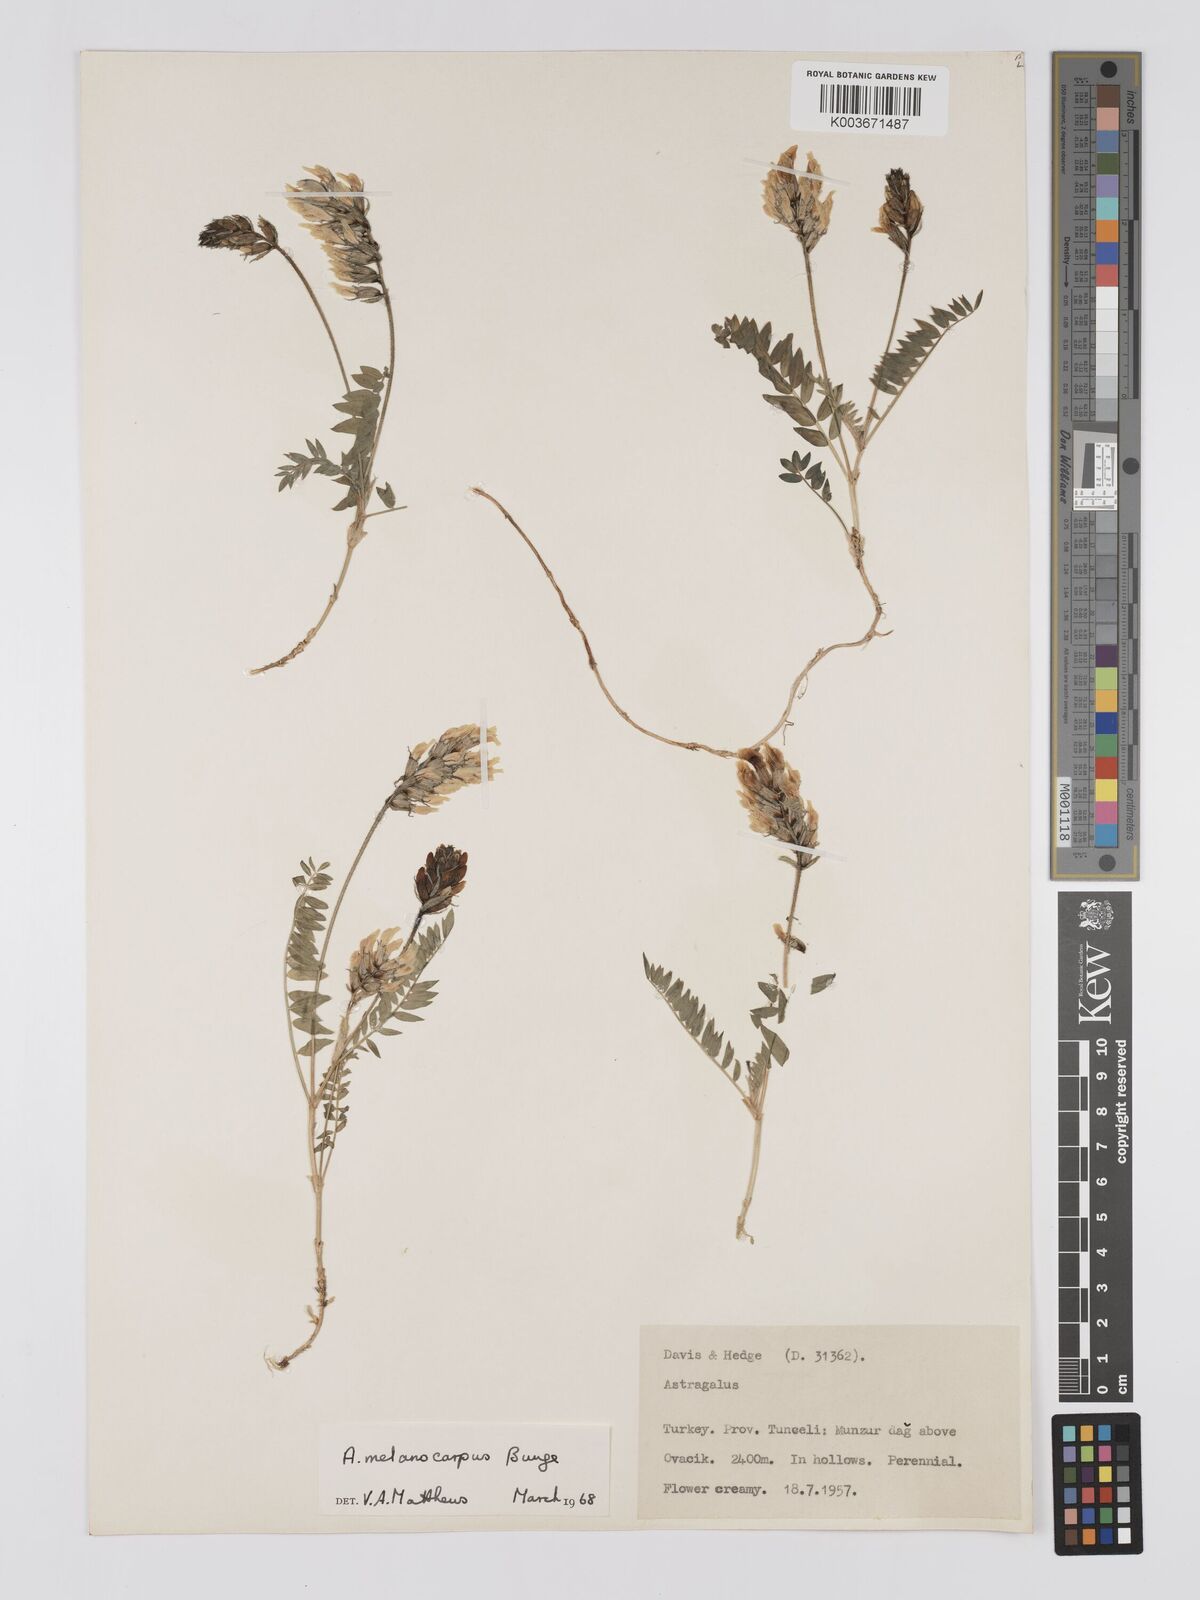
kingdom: Plantae
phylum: Tracheophyta
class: Magnoliopsida
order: Fabales
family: Fabaceae
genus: Astragalus
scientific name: Astragalus atrifructus
